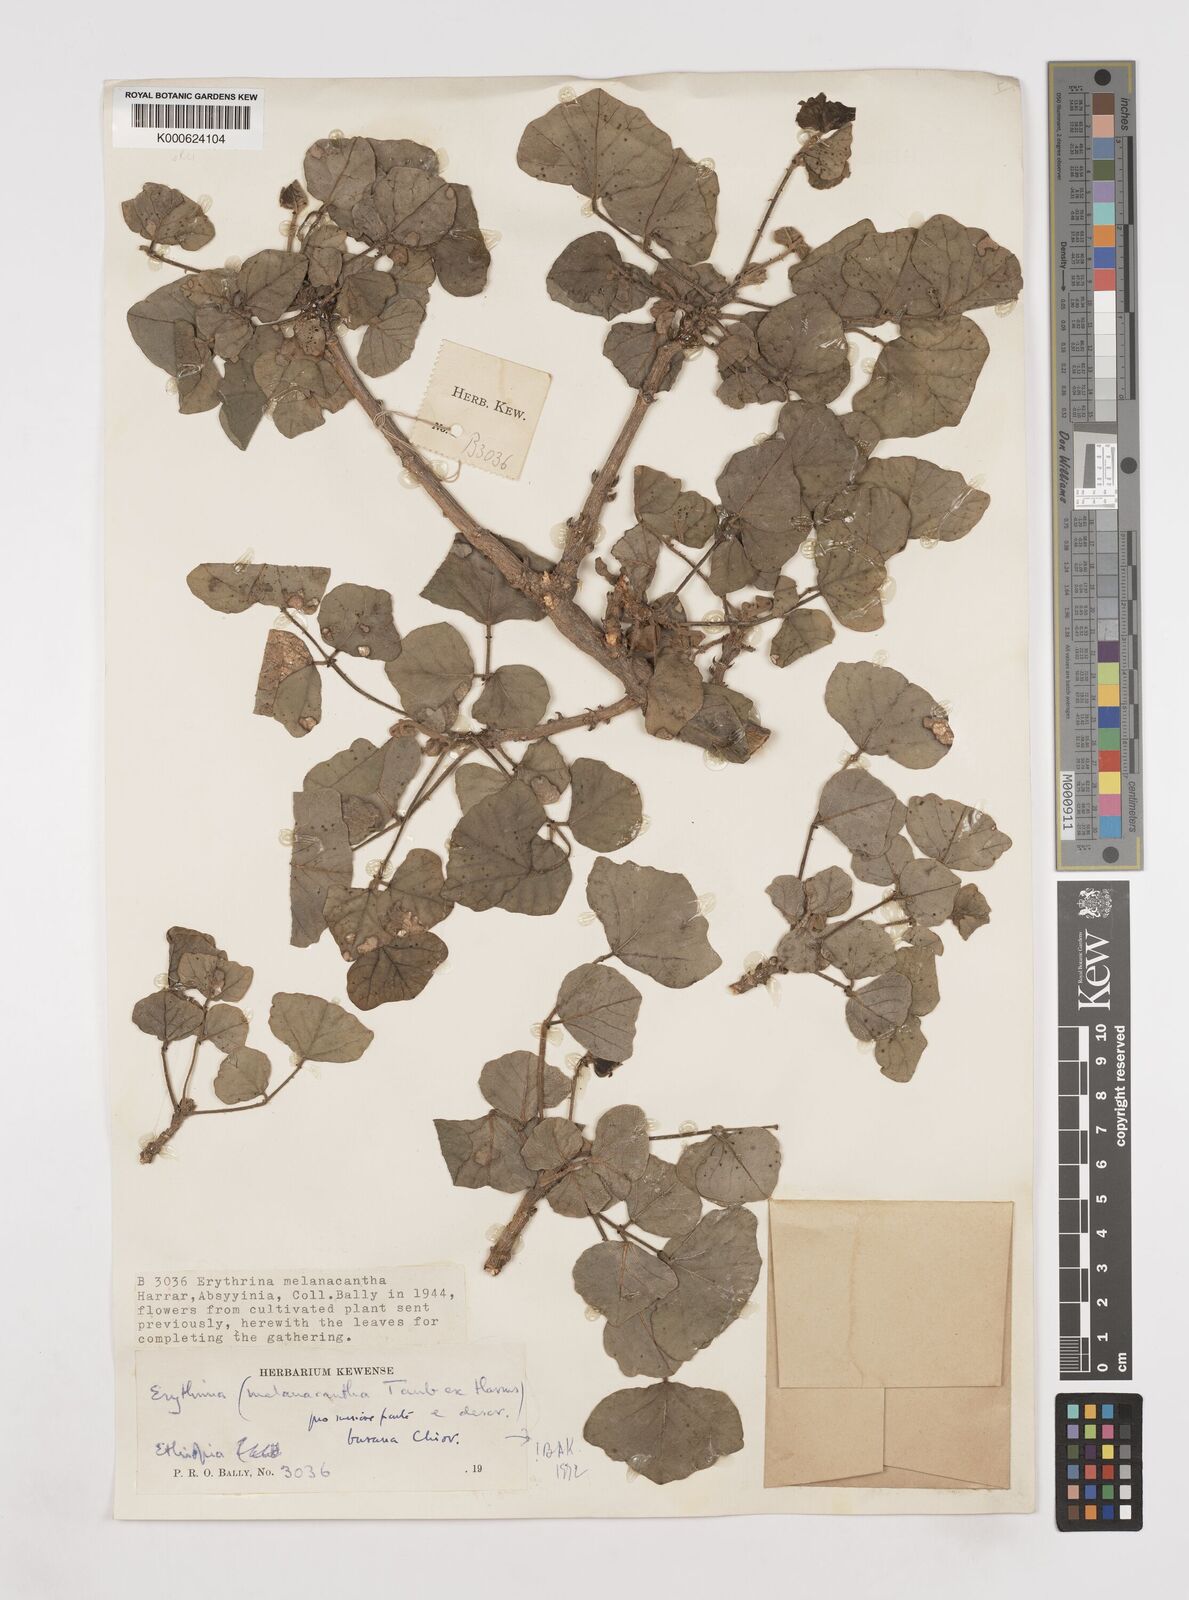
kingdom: Plantae
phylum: Tracheophyta
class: Magnoliopsida
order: Fabales
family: Fabaceae
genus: Erythrina
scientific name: Erythrina burana
